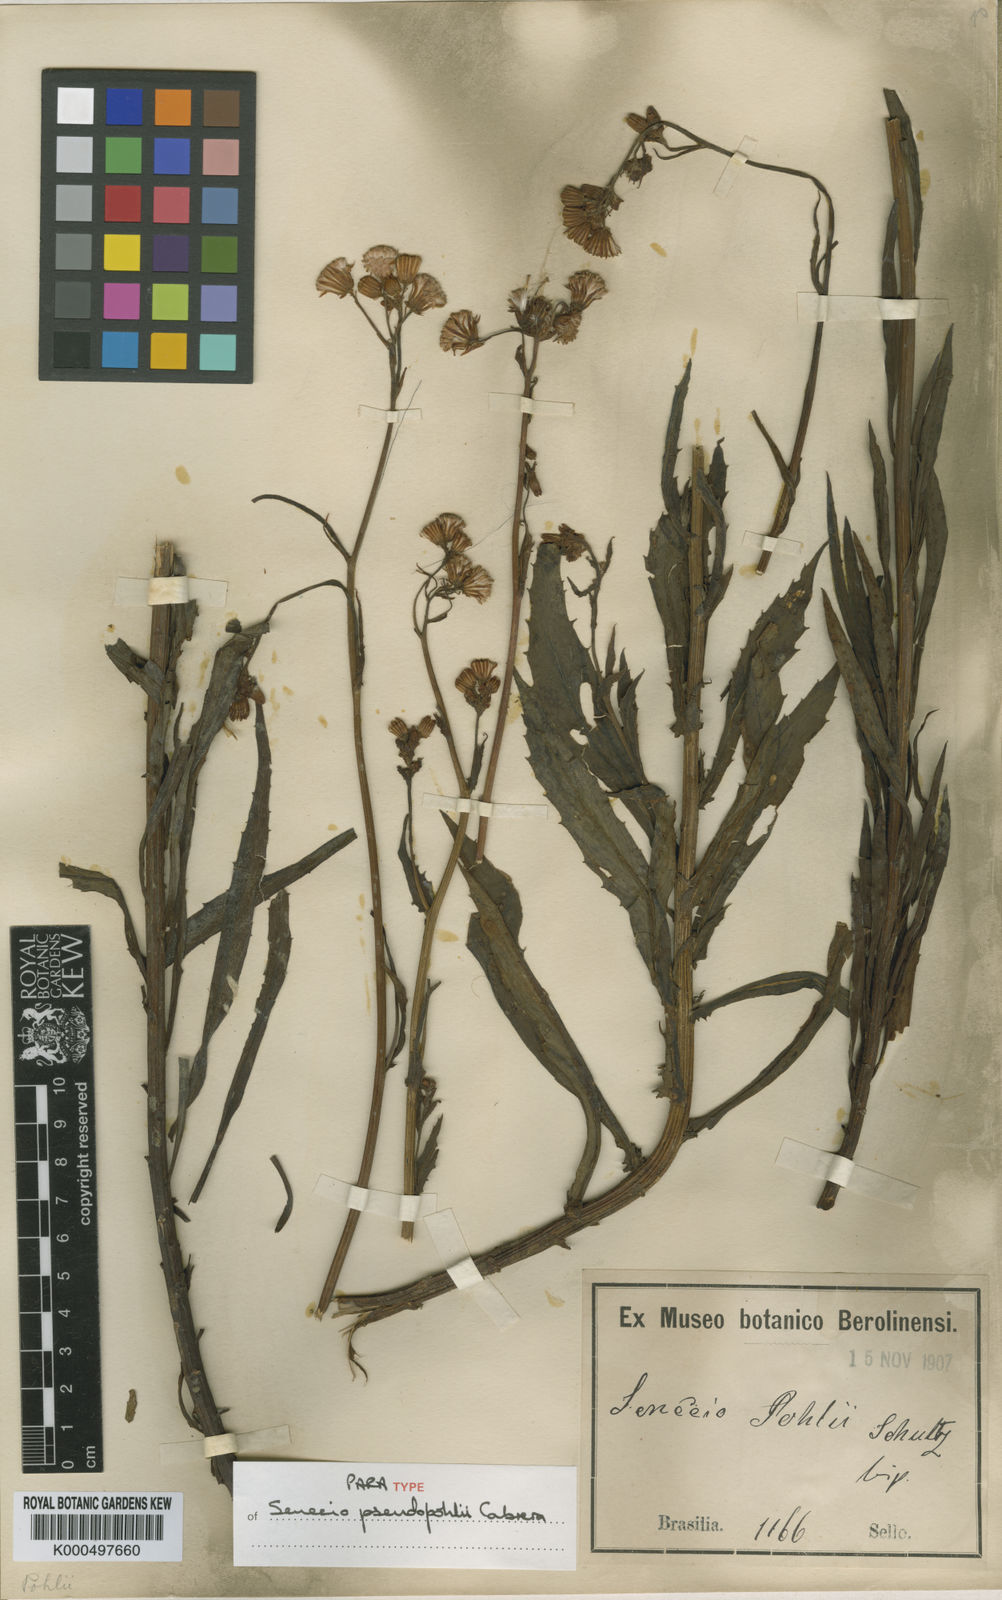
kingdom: Plantae
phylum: Tracheophyta
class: Magnoliopsida
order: Asterales
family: Asteraceae
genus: Senecio
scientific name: Senecio
